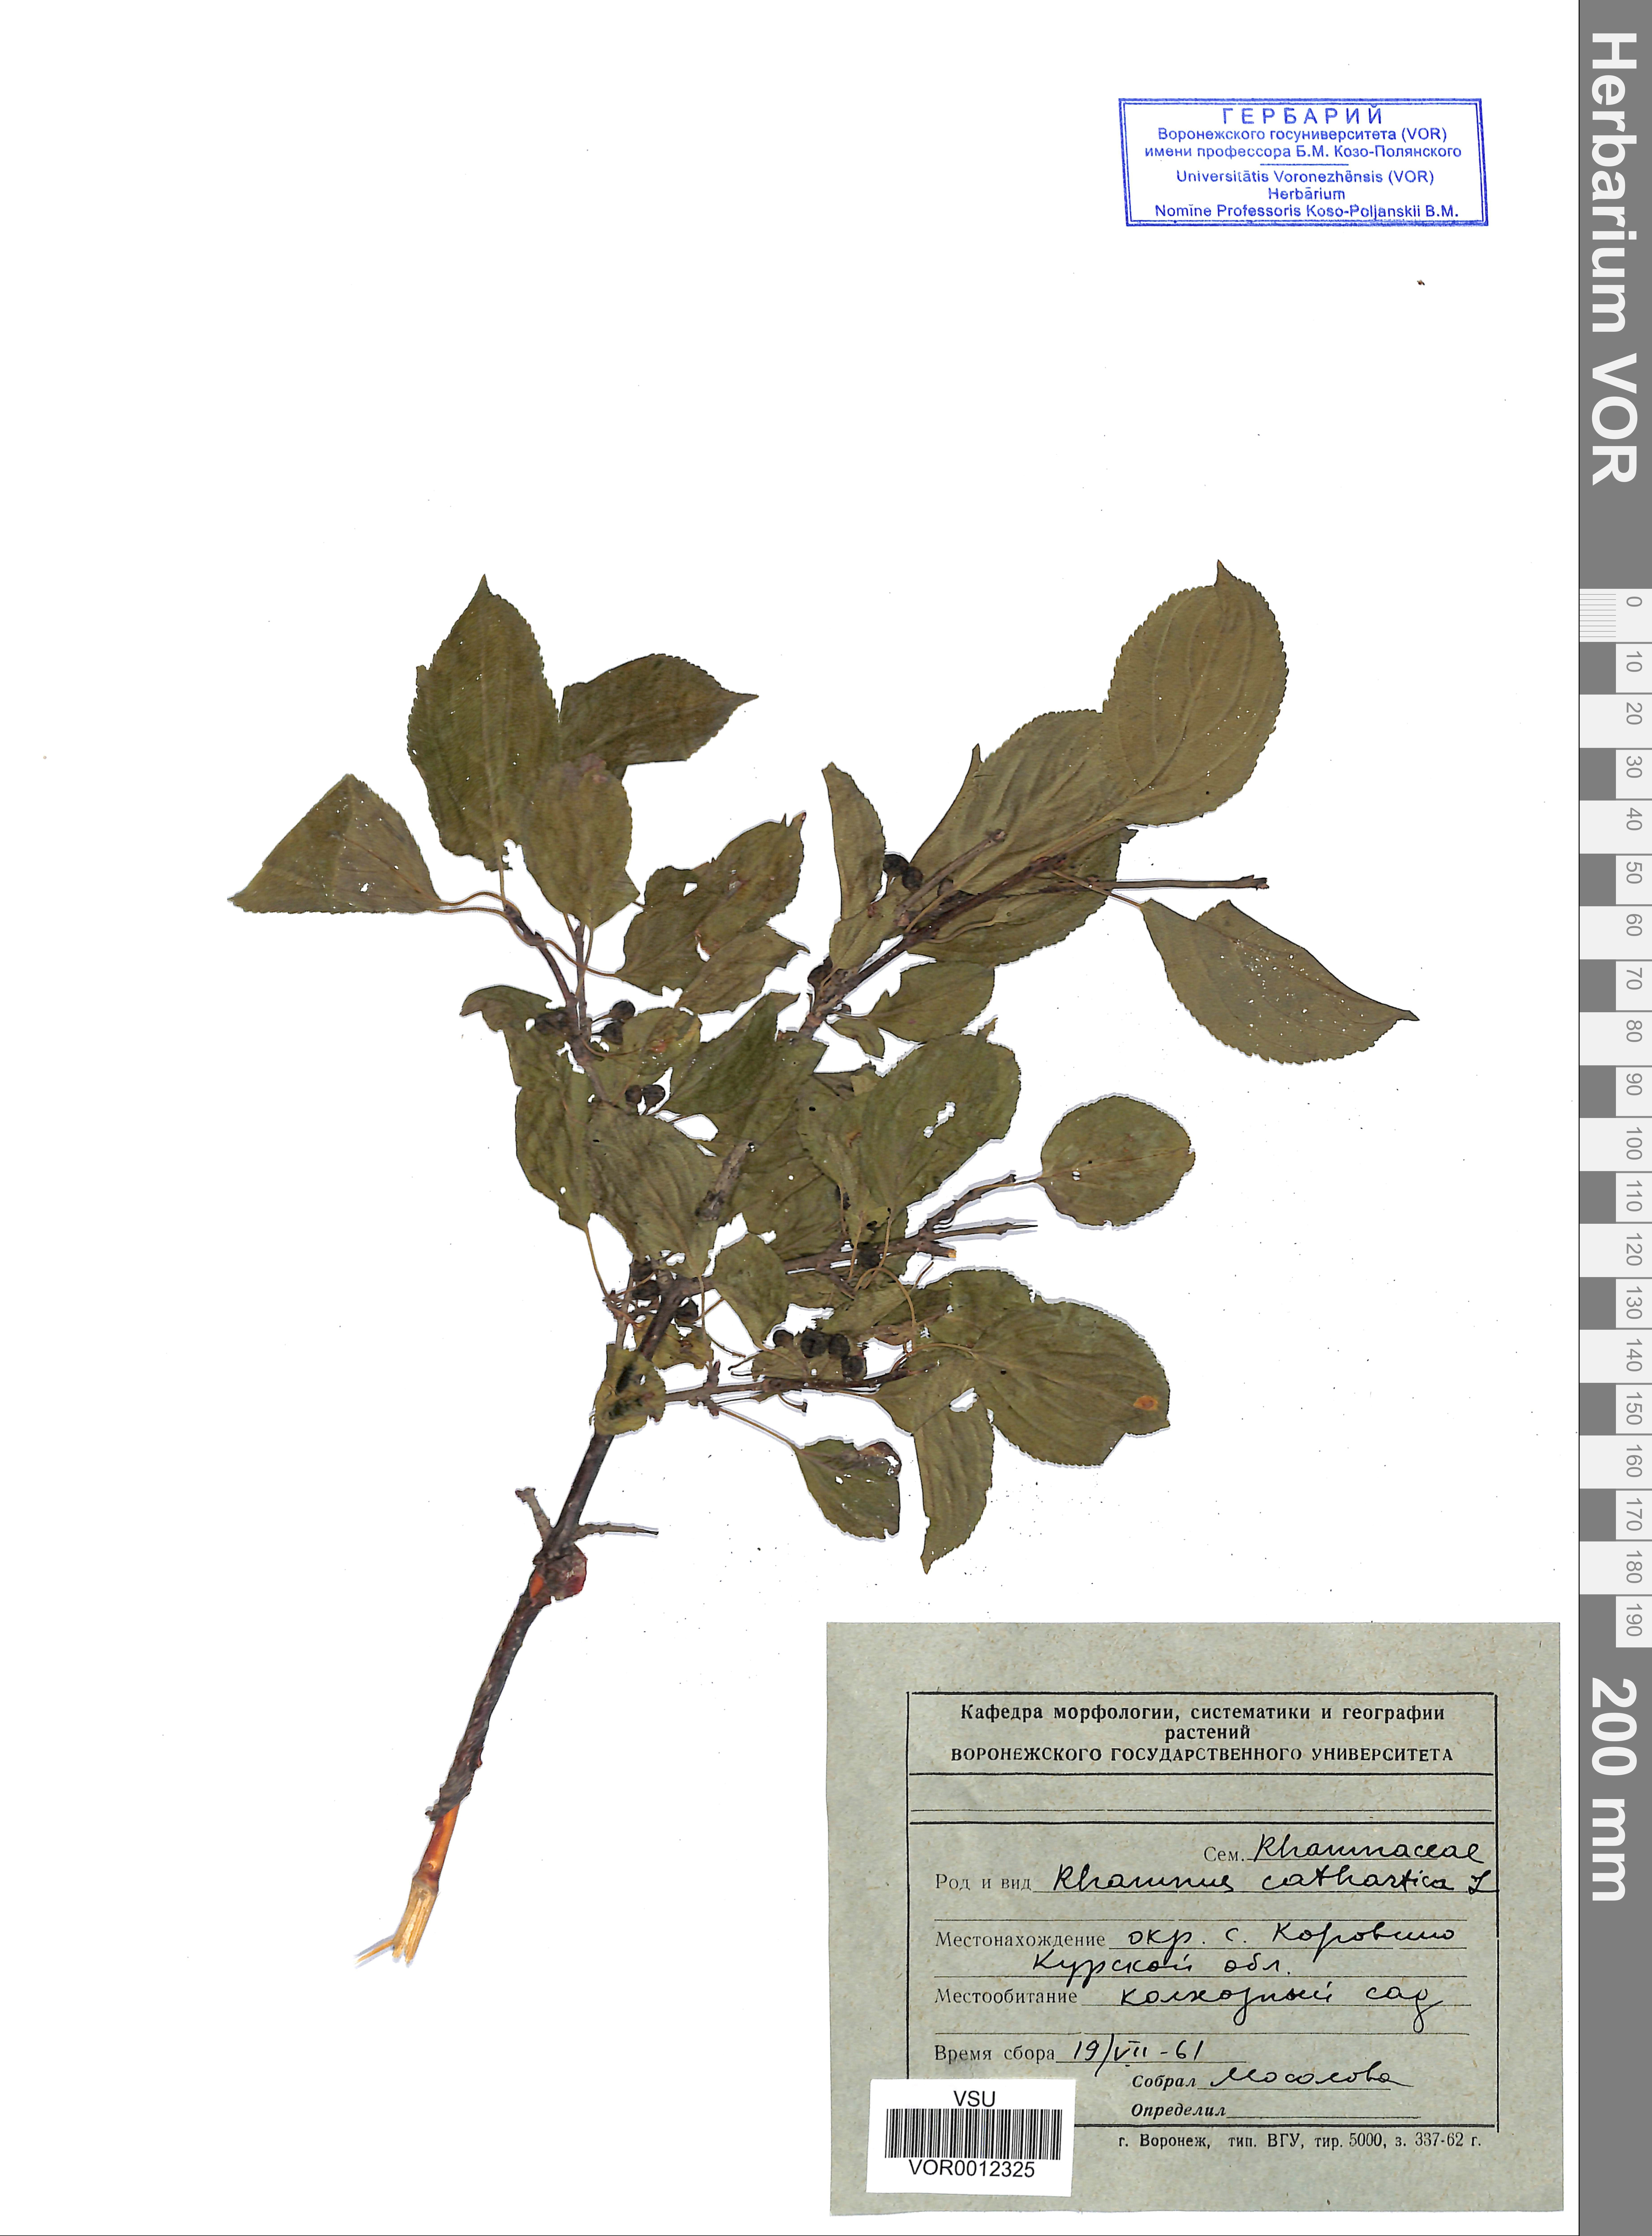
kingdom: Plantae
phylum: Tracheophyta
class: Magnoliopsida
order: Rosales
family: Rhamnaceae
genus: Rhamnus
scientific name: Rhamnus cathartica
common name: Common buckthorn
